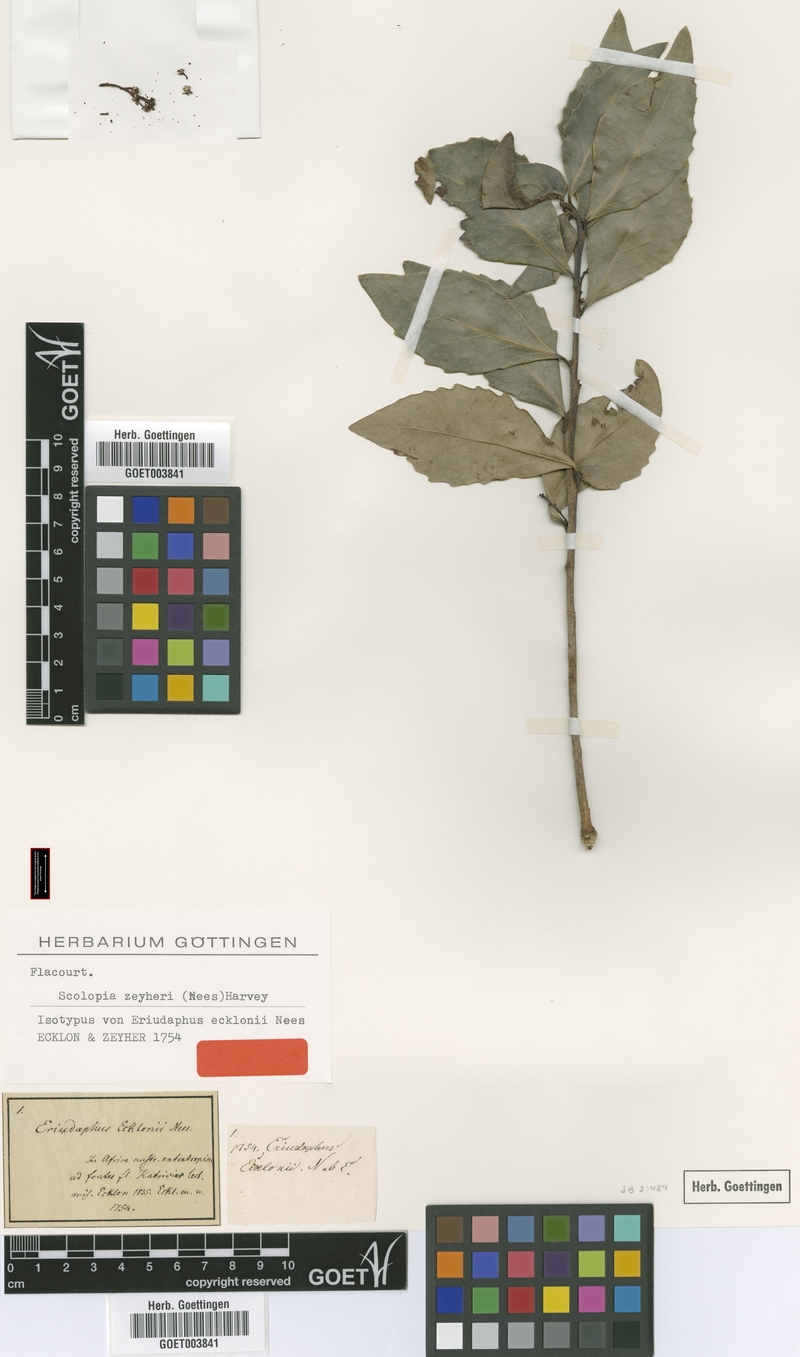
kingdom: Plantae
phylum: Tracheophyta
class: Magnoliopsida
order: Malpighiales
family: Salicaceae
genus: Scolopia
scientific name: Scolopia zeyheri
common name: Thorn pear
